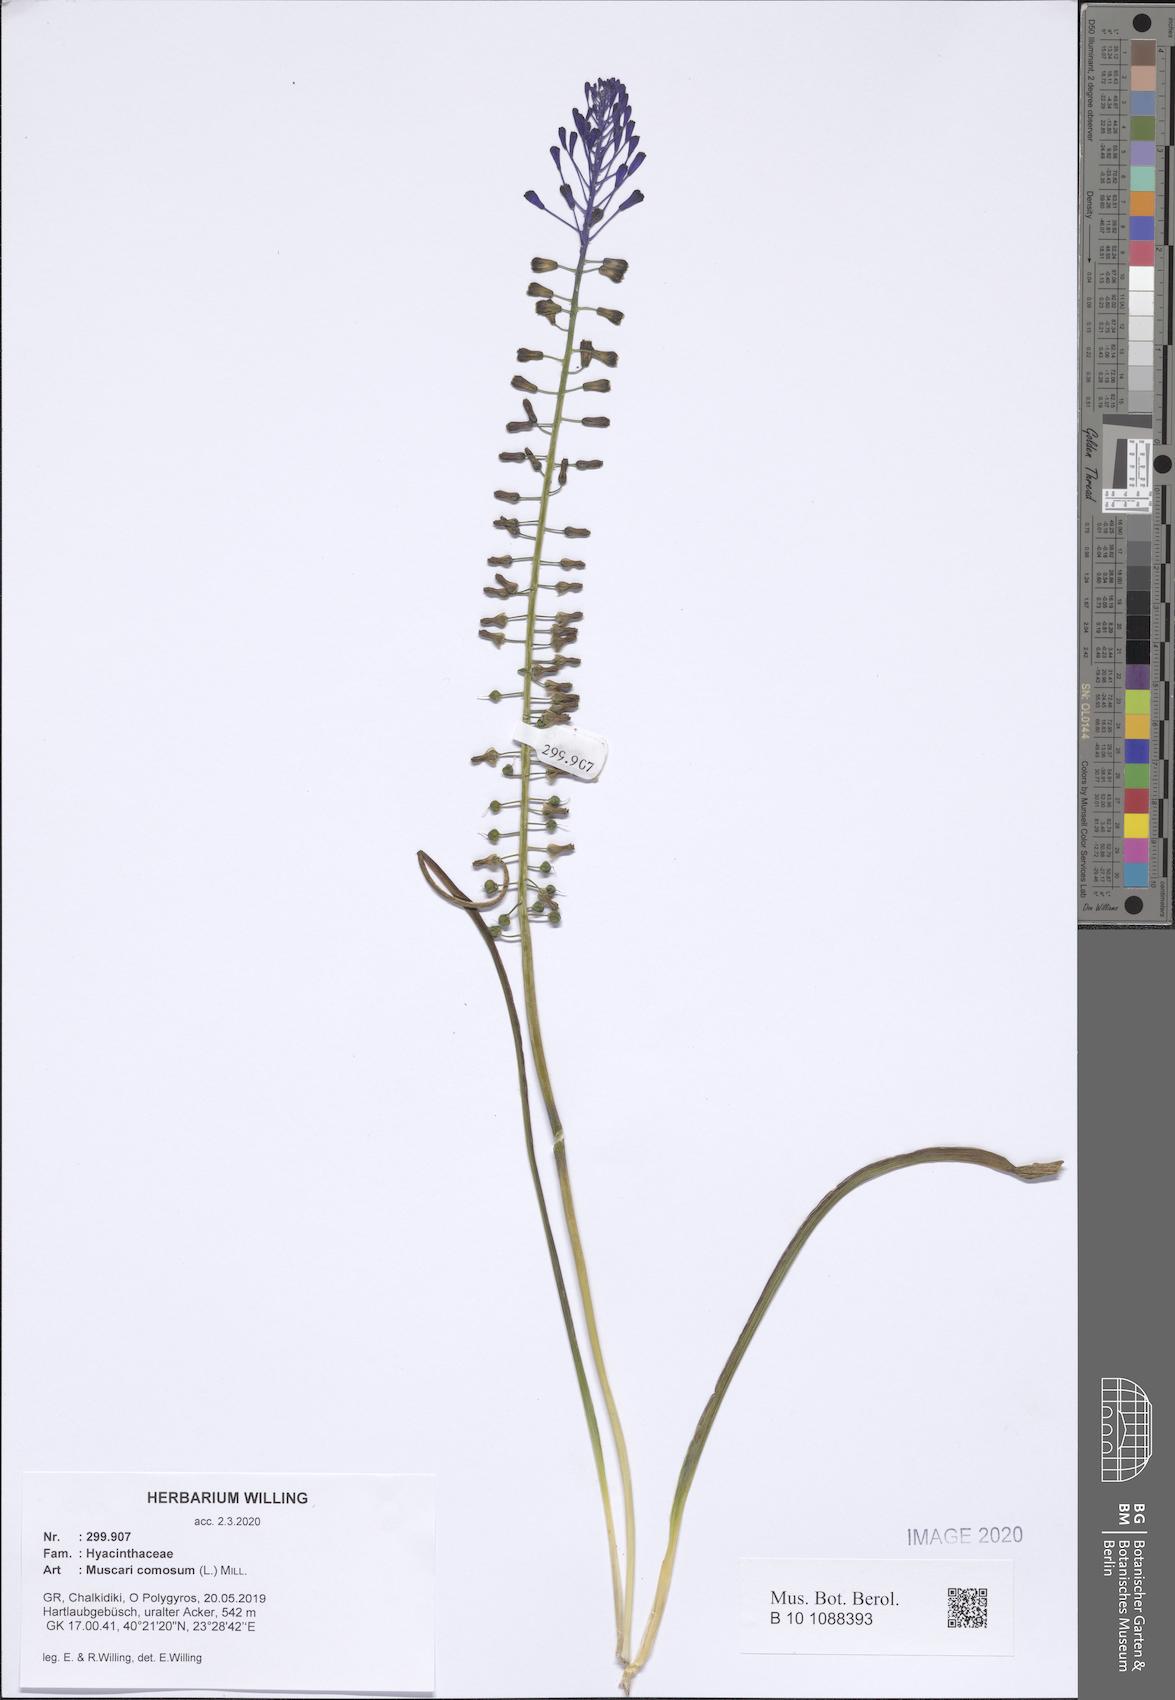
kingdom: Plantae
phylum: Tracheophyta
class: Liliopsida
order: Asparagales
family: Asparagaceae
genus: Muscari
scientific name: Muscari comosum
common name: Tassel hyacinth
